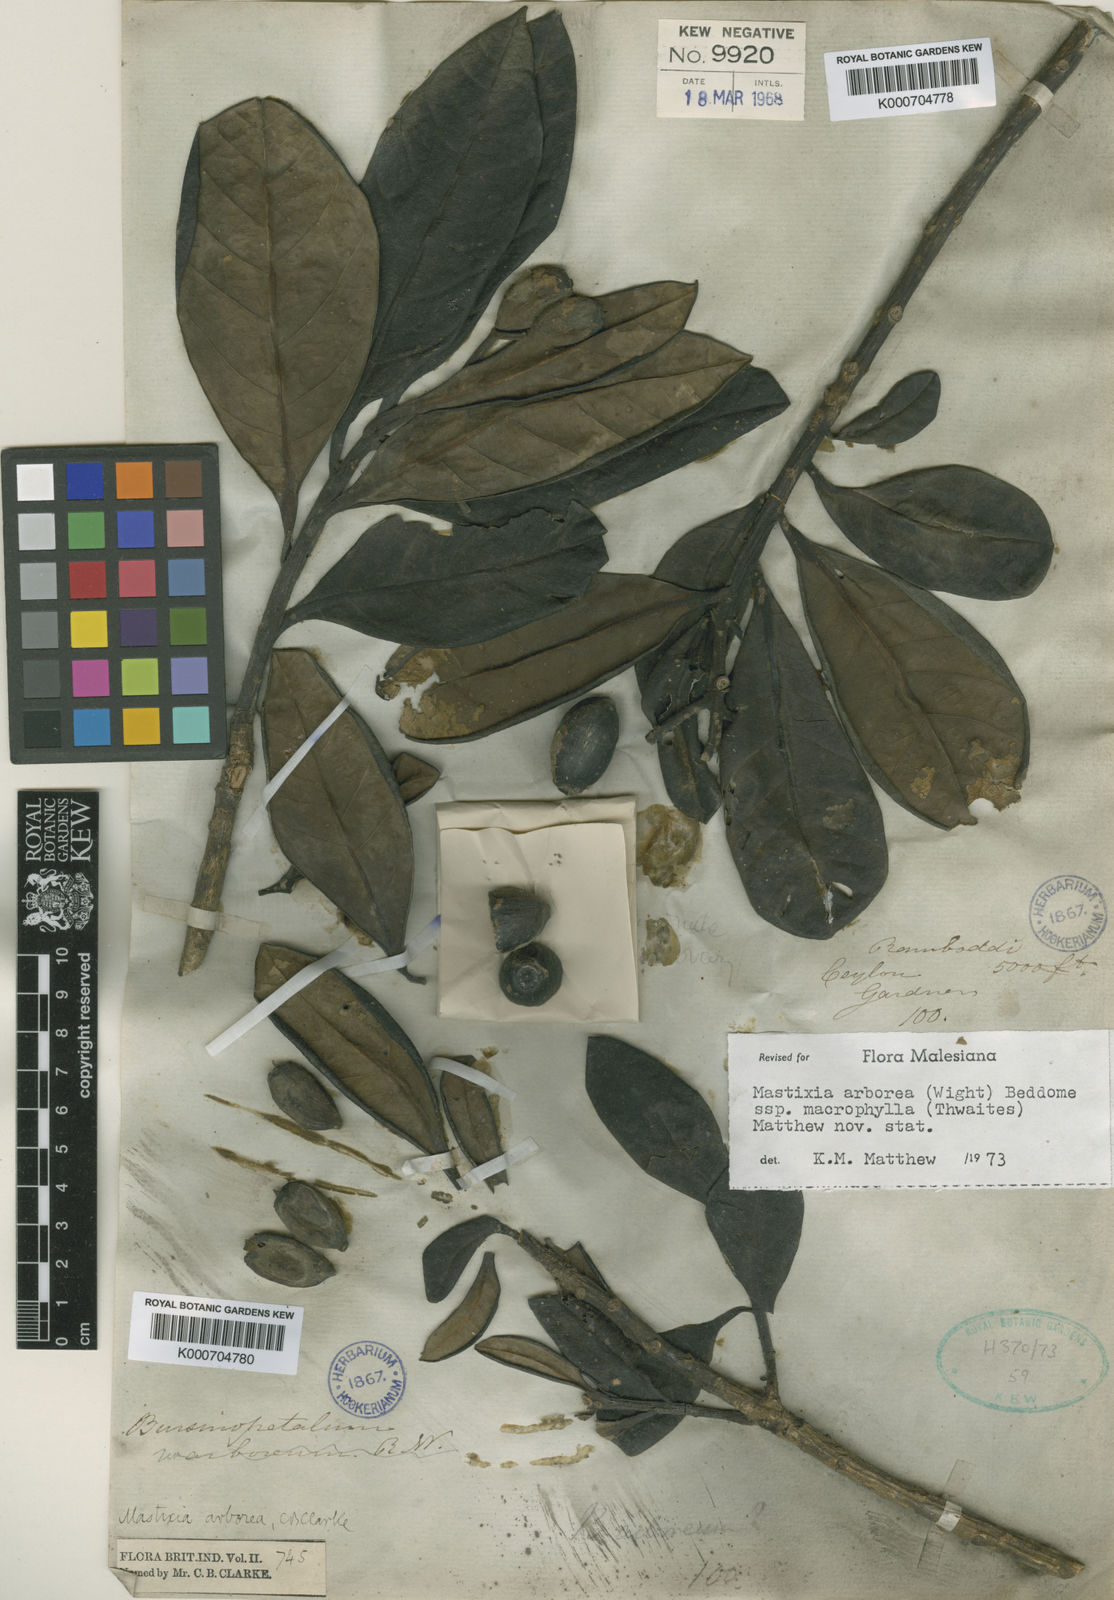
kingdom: Plantae
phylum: Tracheophyta
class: Magnoliopsida
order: Cornales
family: Nyssaceae
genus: Mastixia
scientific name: Mastixia arborea
